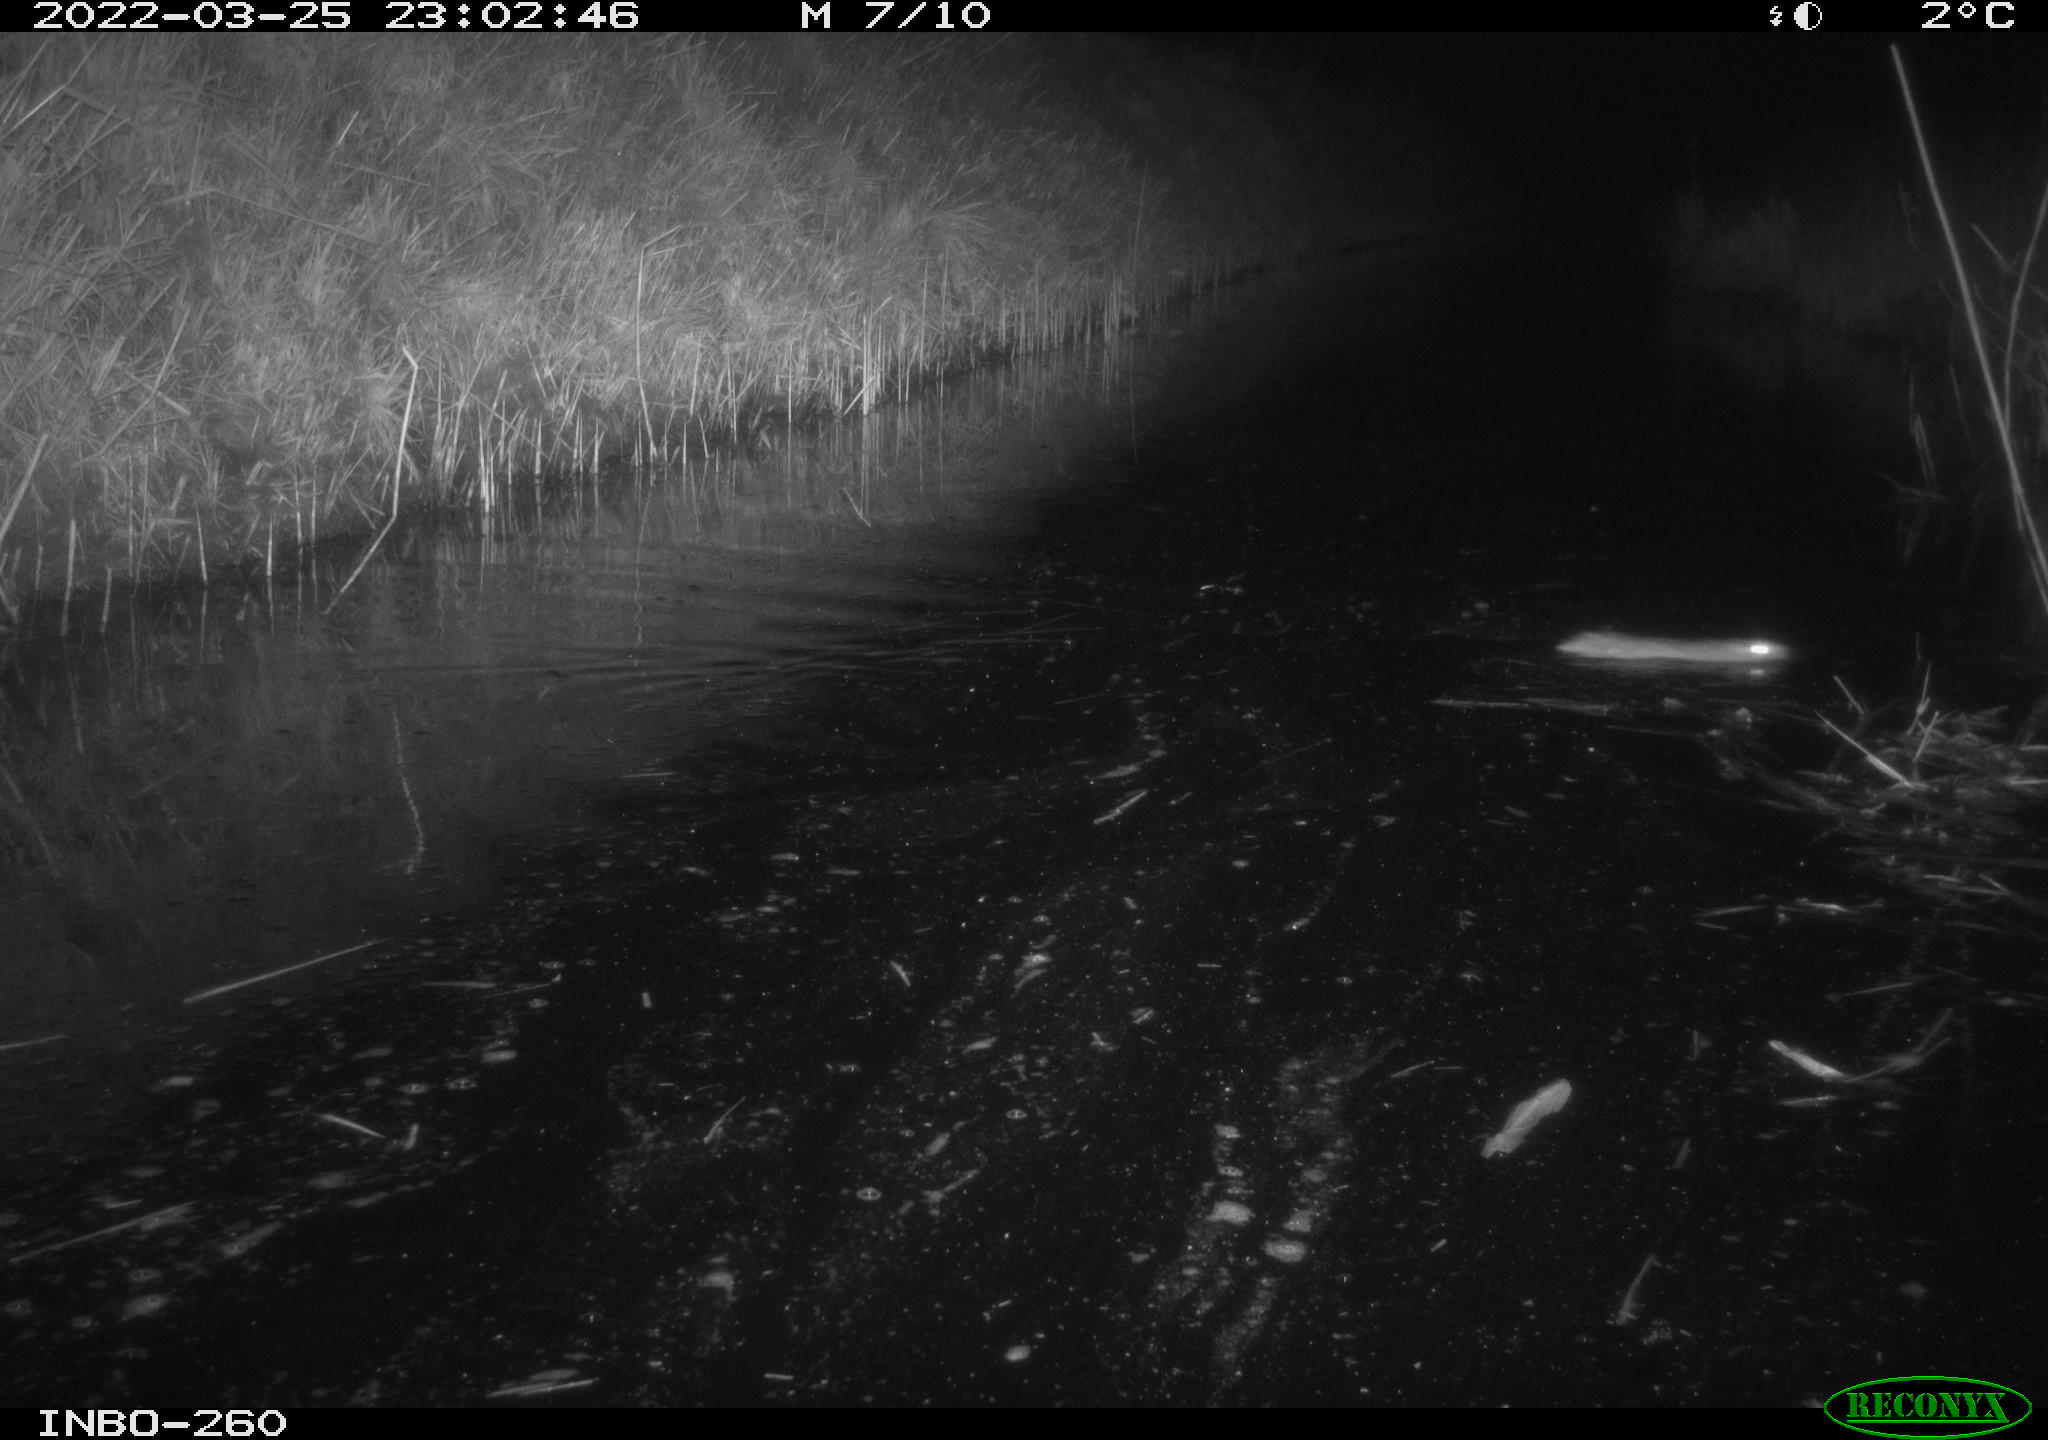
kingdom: Animalia
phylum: Chordata
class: Mammalia
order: Rodentia
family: Muridae
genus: Rattus
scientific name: Rattus norvegicus
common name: Brown rat
